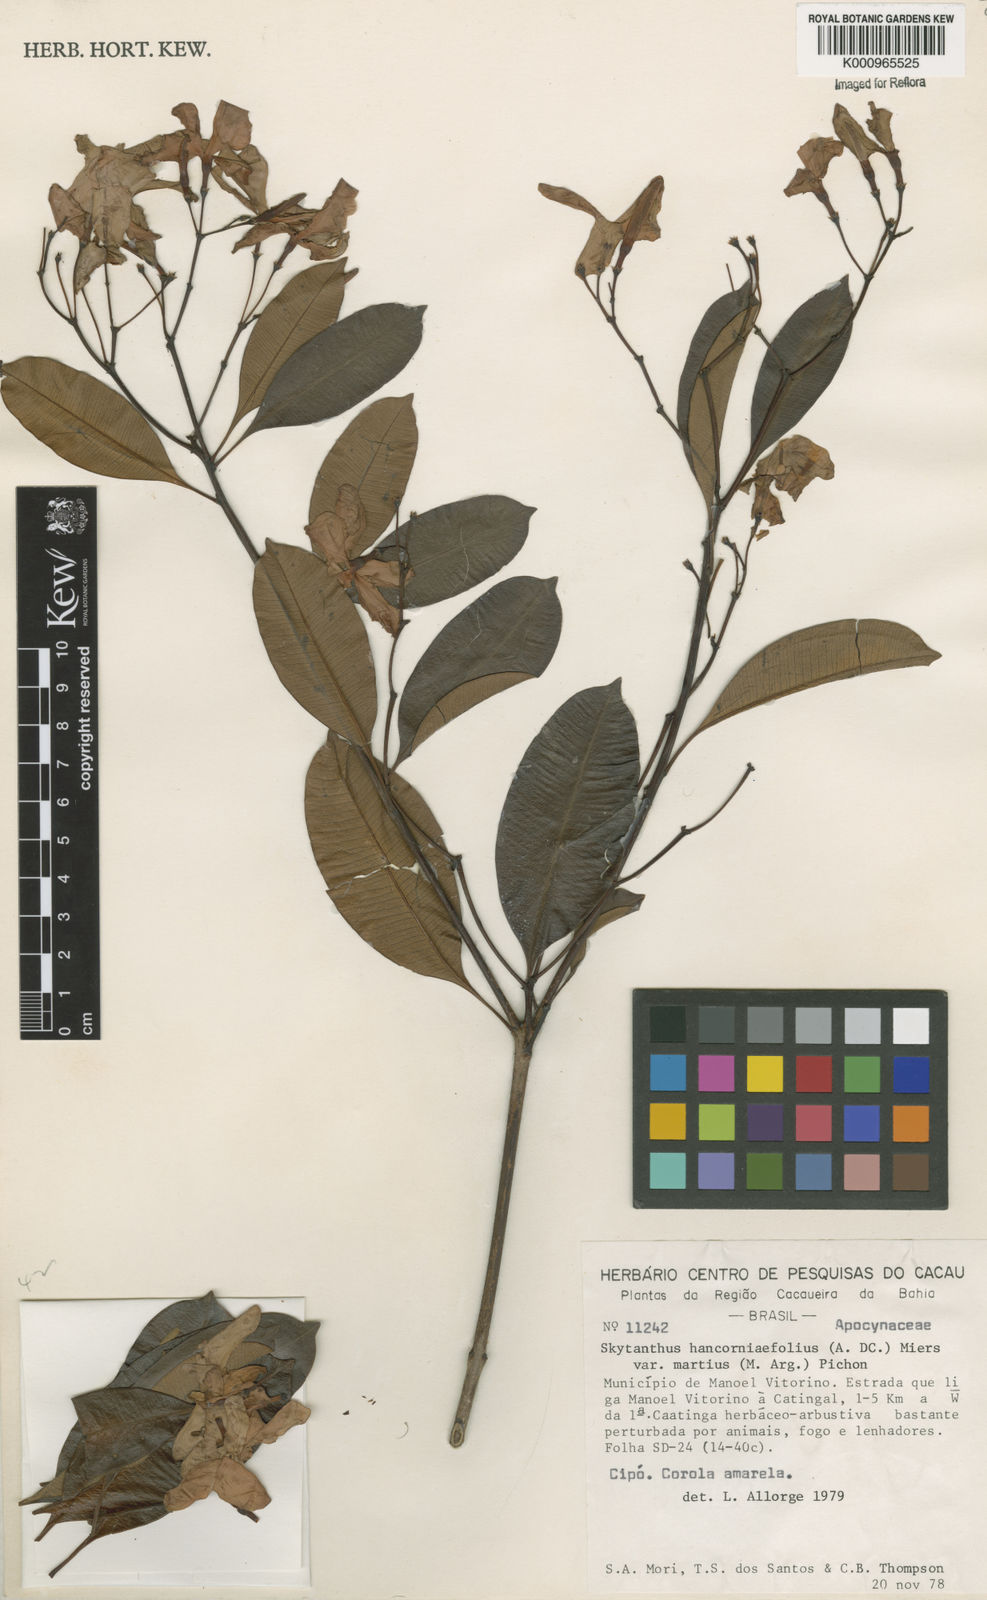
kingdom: Plantae
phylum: Tracheophyta
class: Magnoliopsida
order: Gentianales
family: Apocynaceae
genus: Skytanthus
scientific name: Skytanthus hancorniifolius
